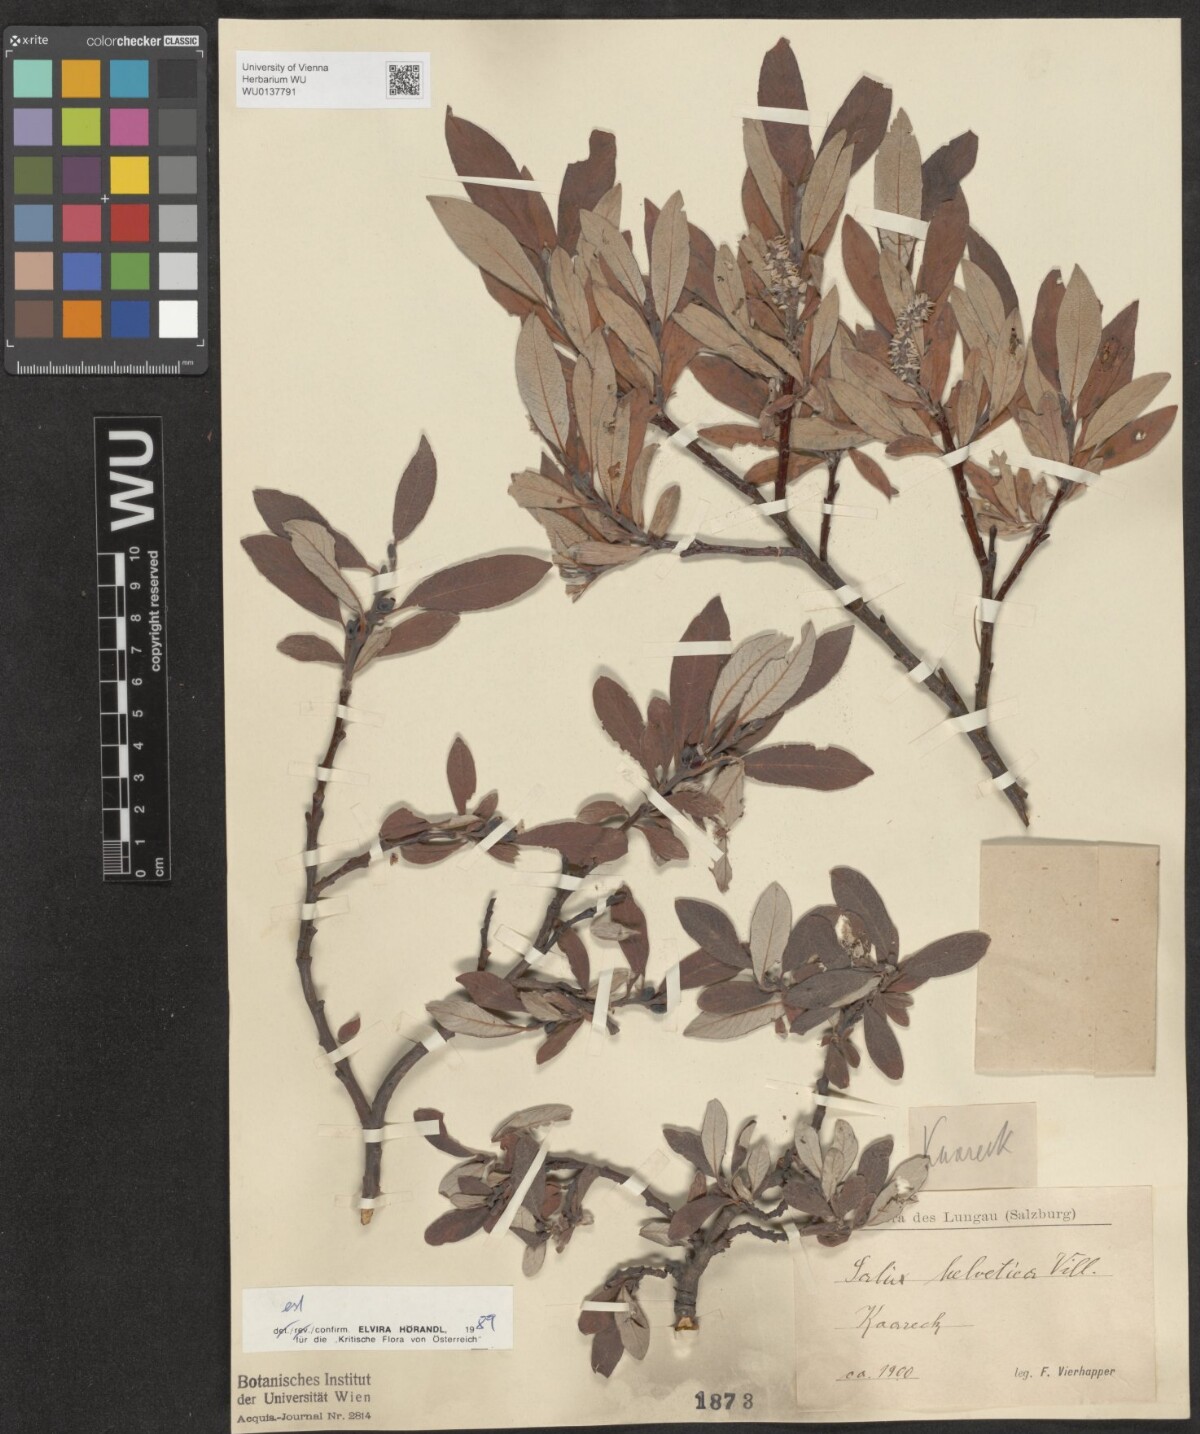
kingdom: Plantae
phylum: Tracheophyta
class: Magnoliopsida
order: Malpighiales
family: Salicaceae
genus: Salix
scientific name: Salix helvetica
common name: Swiss willow
